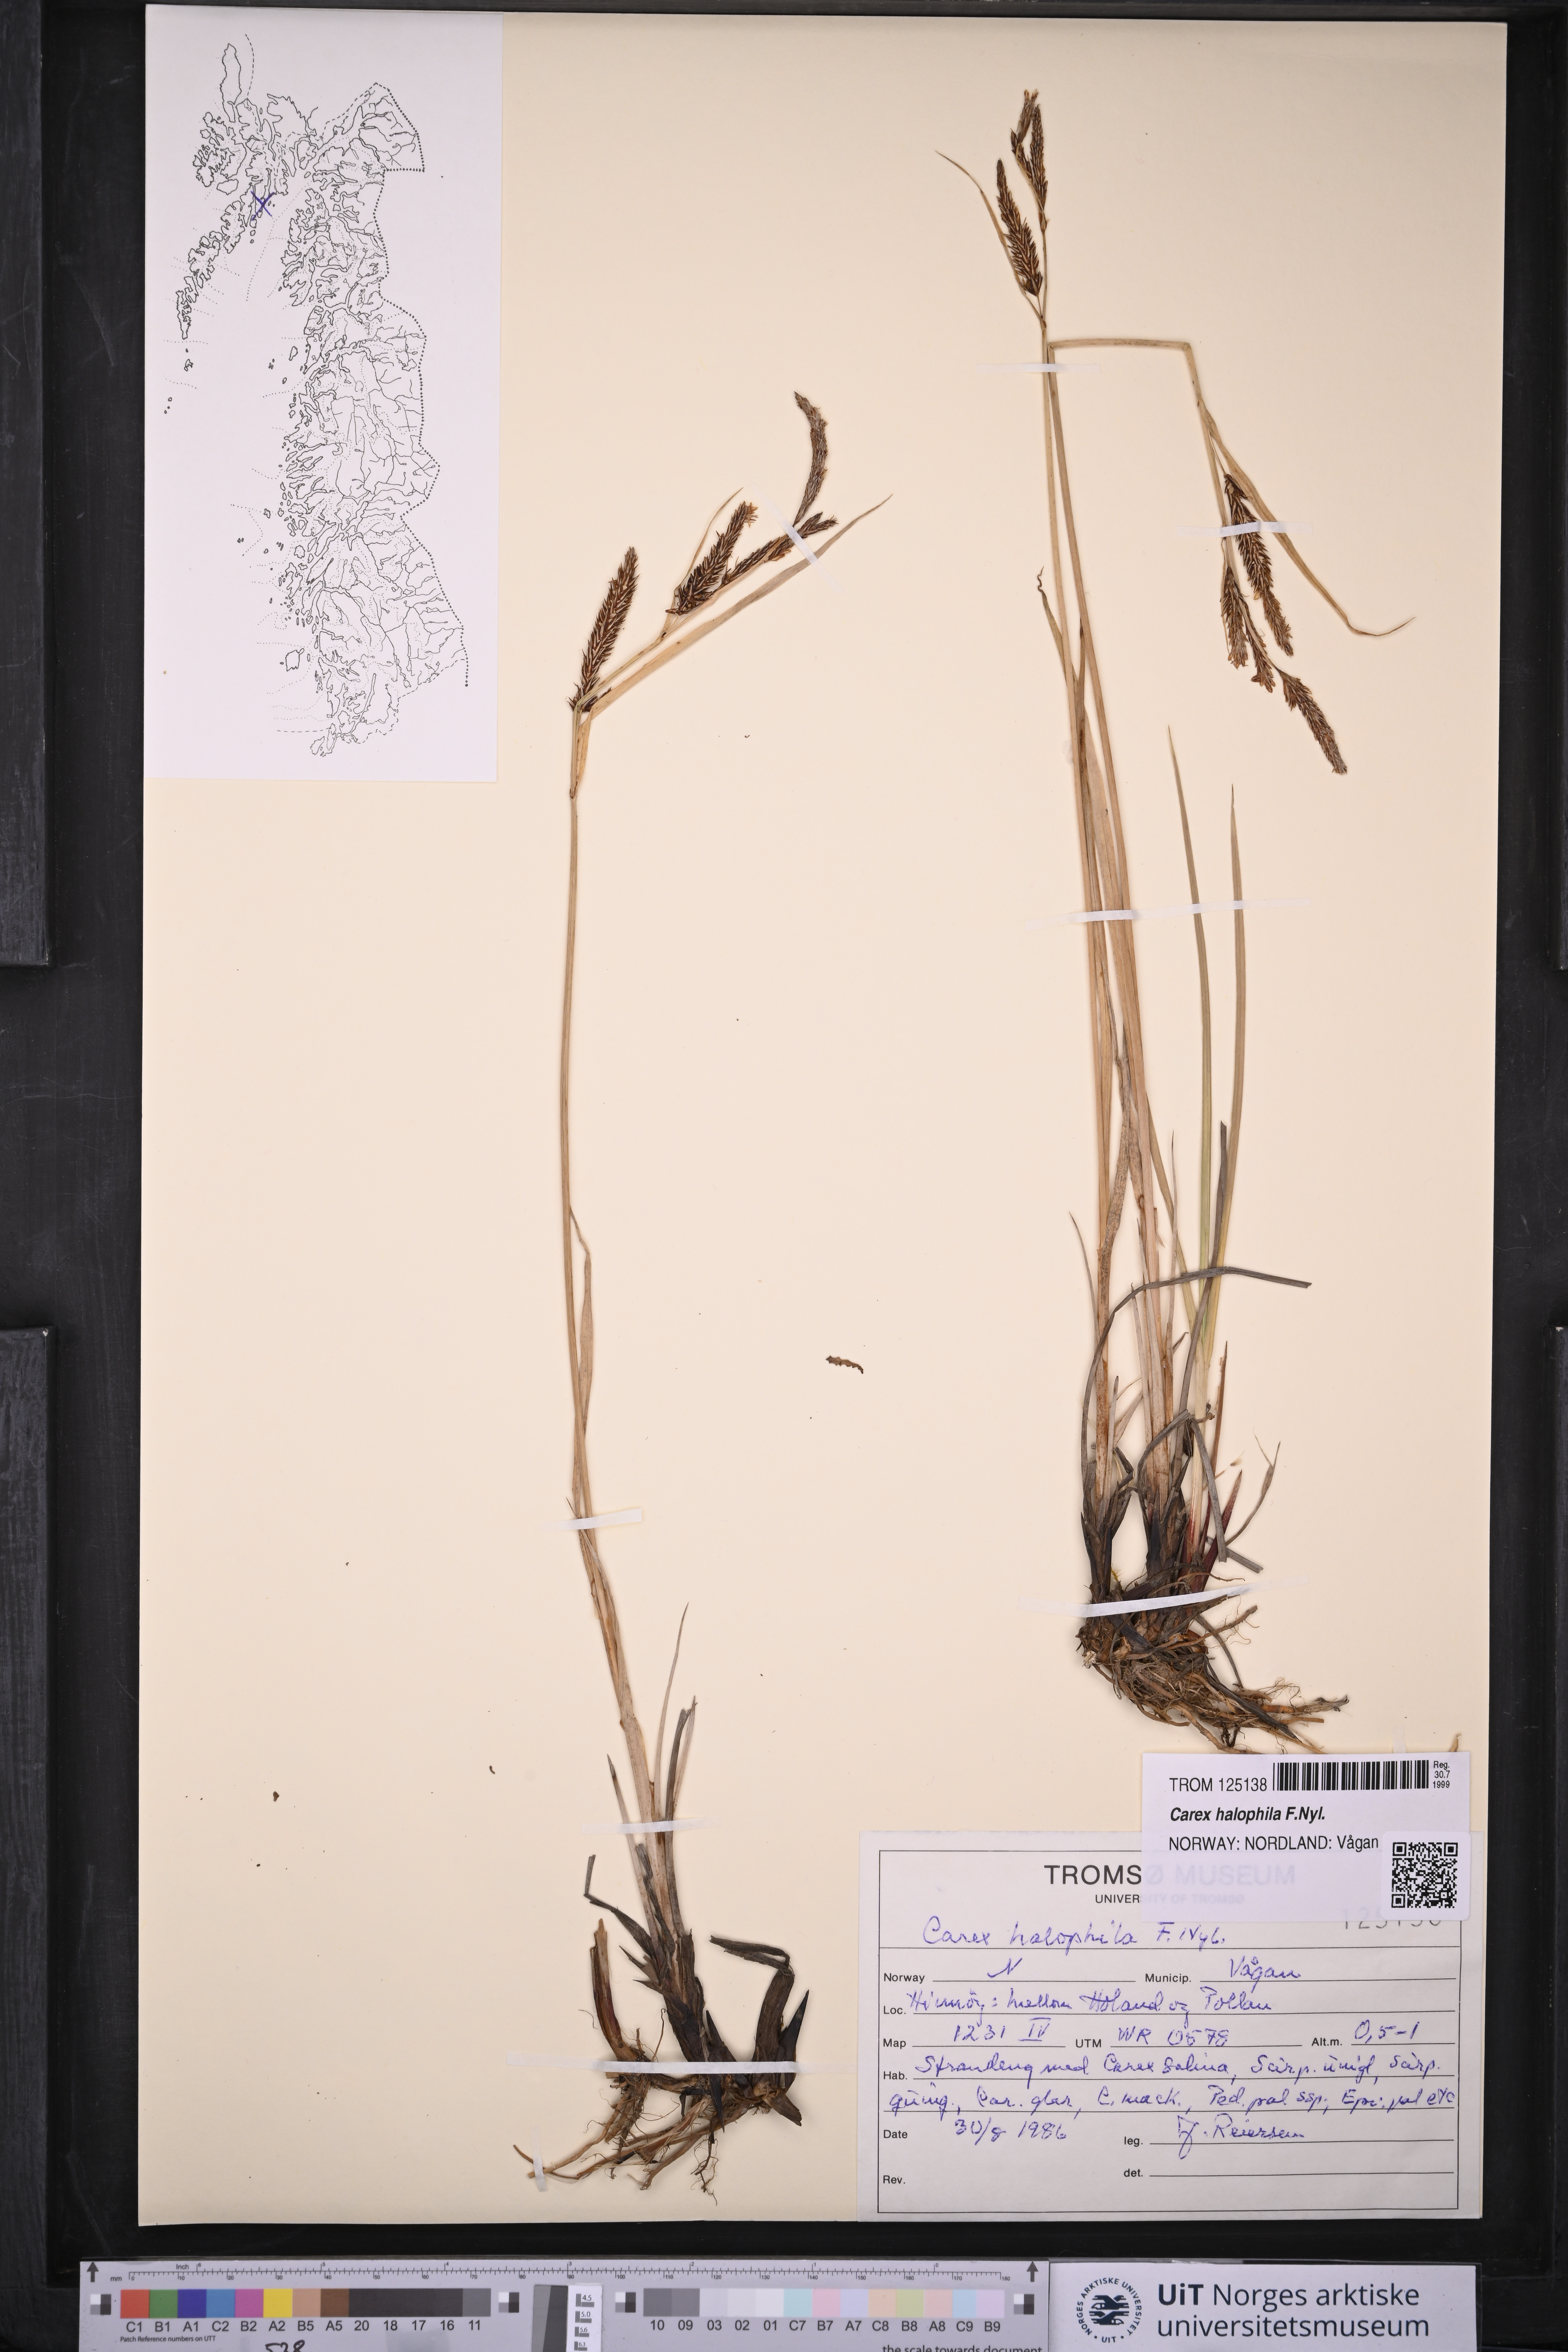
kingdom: Plantae
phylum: Tracheophyta
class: Liliopsida
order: Poales
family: Cyperaceae
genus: Carex
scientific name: Carex halophila
